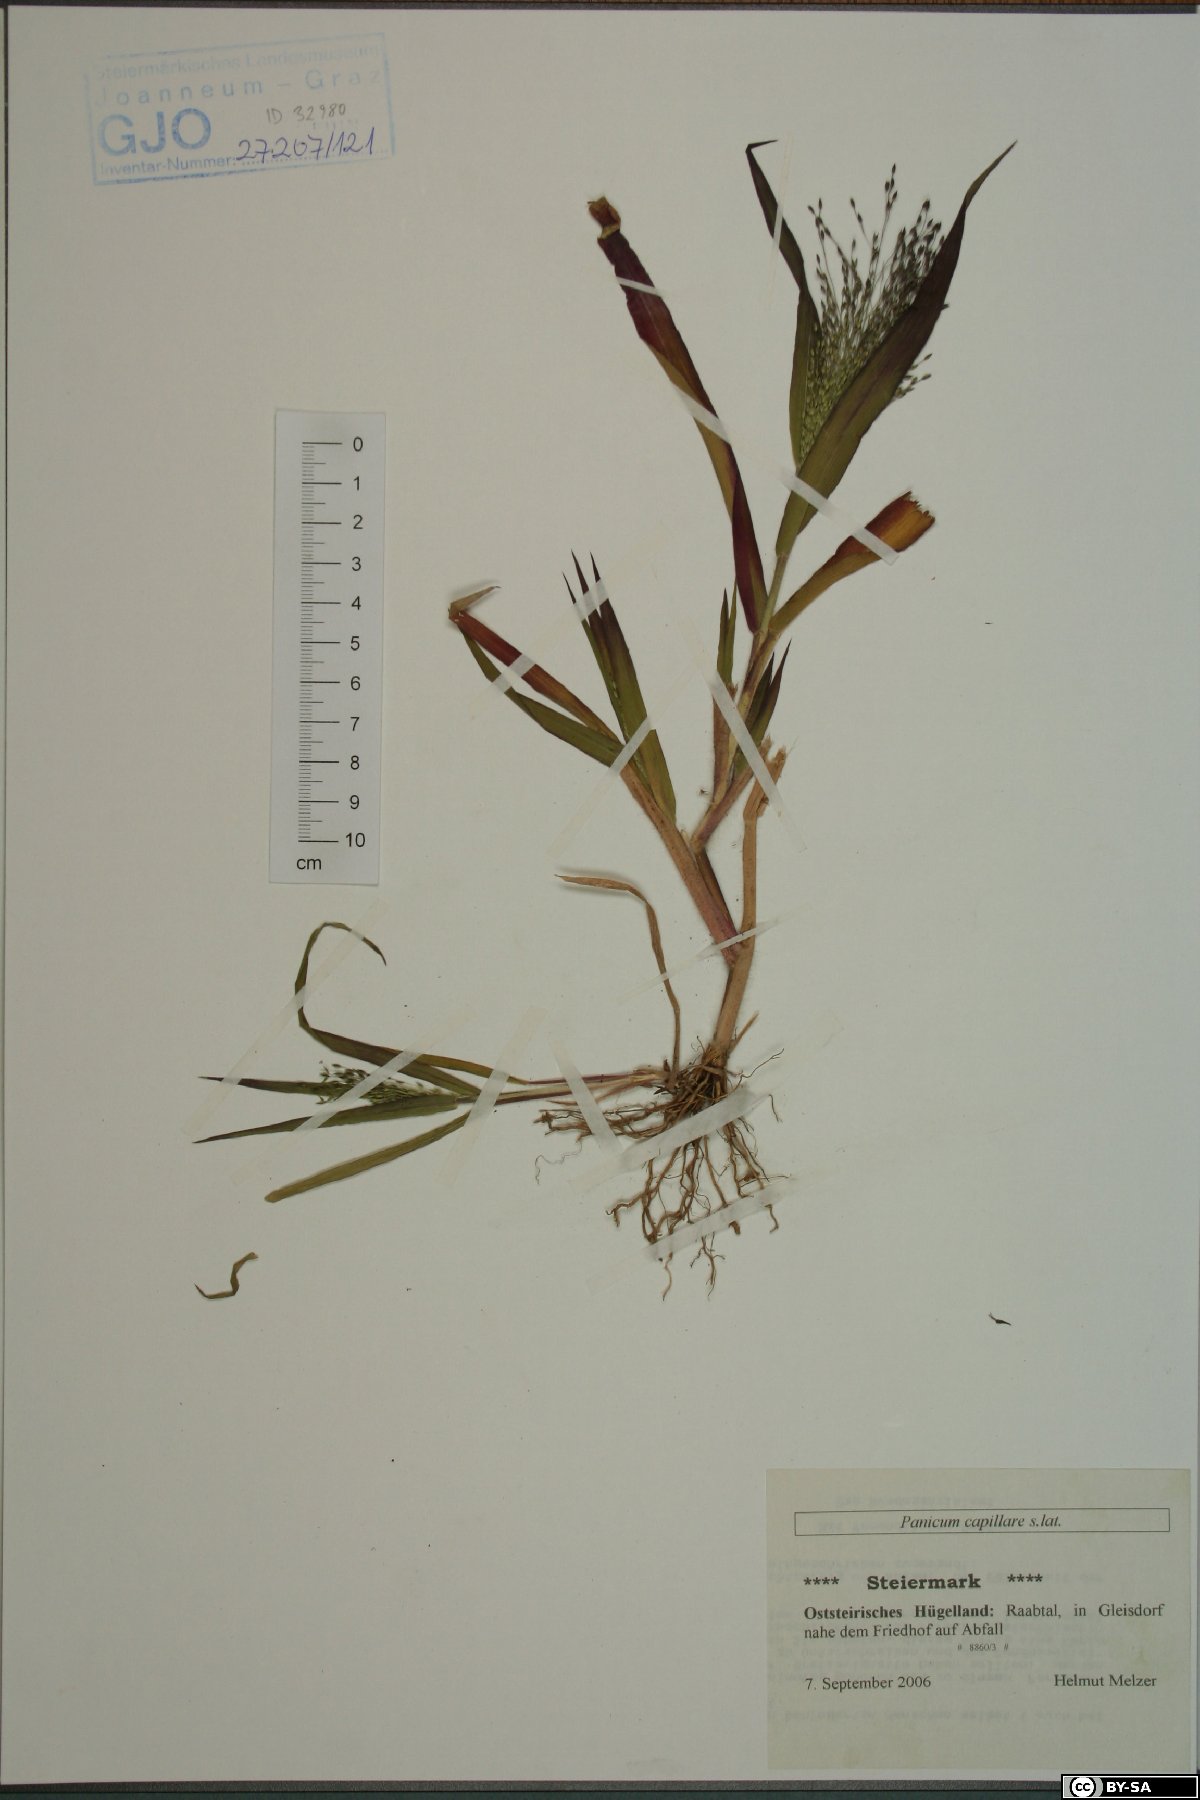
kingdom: Plantae
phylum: Tracheophyta
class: Liliopsida
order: Poales
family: Poaceae
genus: Panicum
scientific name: Panicum capillare
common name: Witch-grass
